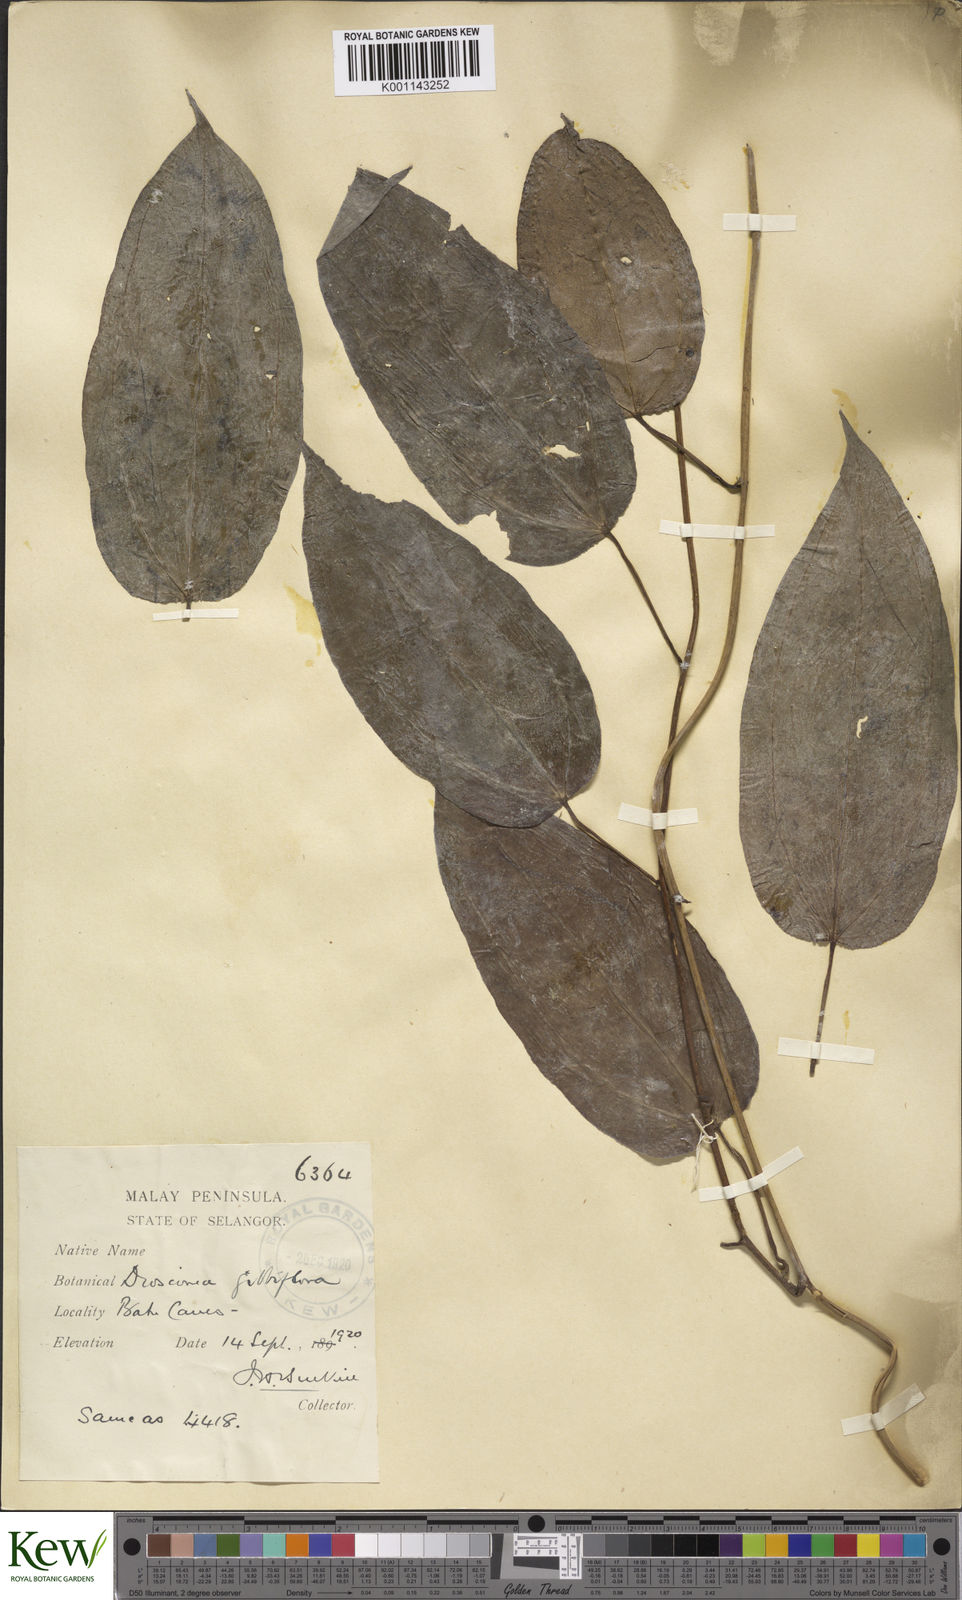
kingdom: Plantae
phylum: Tracheophyta
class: Liliopsida
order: Dioscoreales
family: Dioscoreaceae
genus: Dioscorea
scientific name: Dioscorea filiformis
